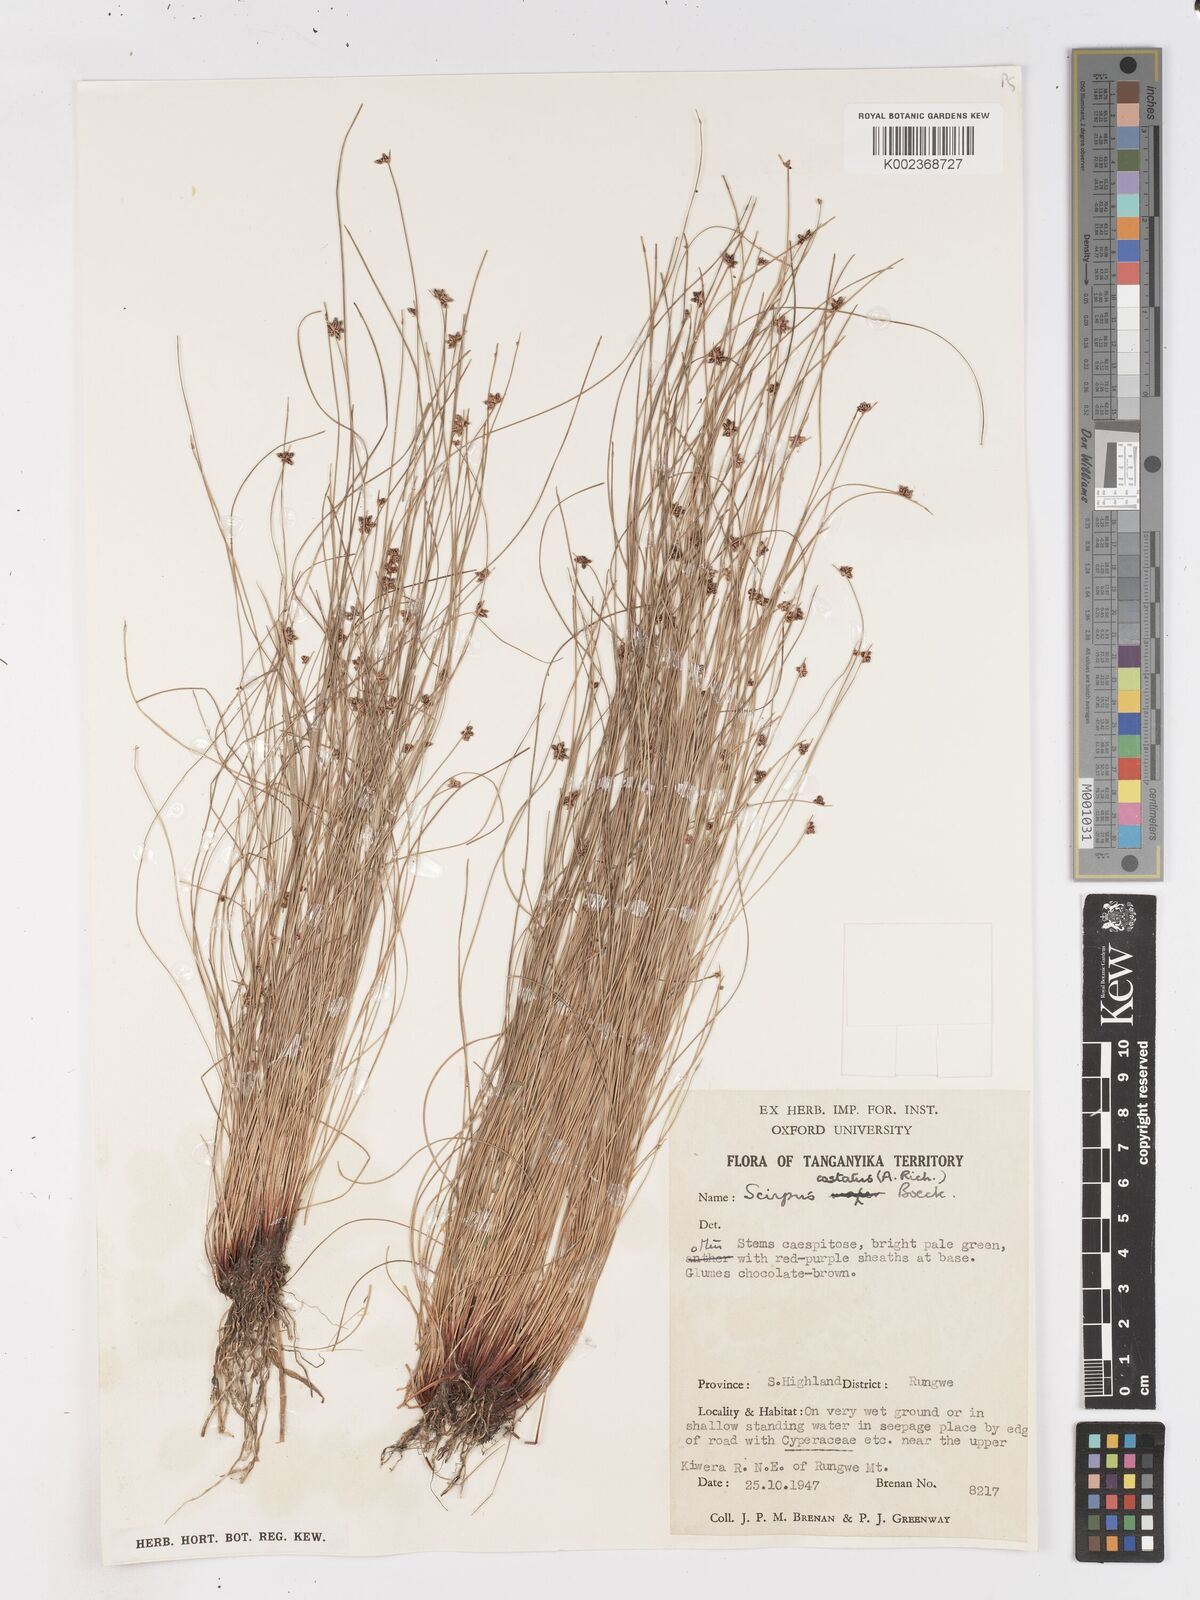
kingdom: Plantae
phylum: Tracheophyta
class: Liliopsida
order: Poales
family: Cyperaceae
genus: Isolepis
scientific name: Isolepis costata
